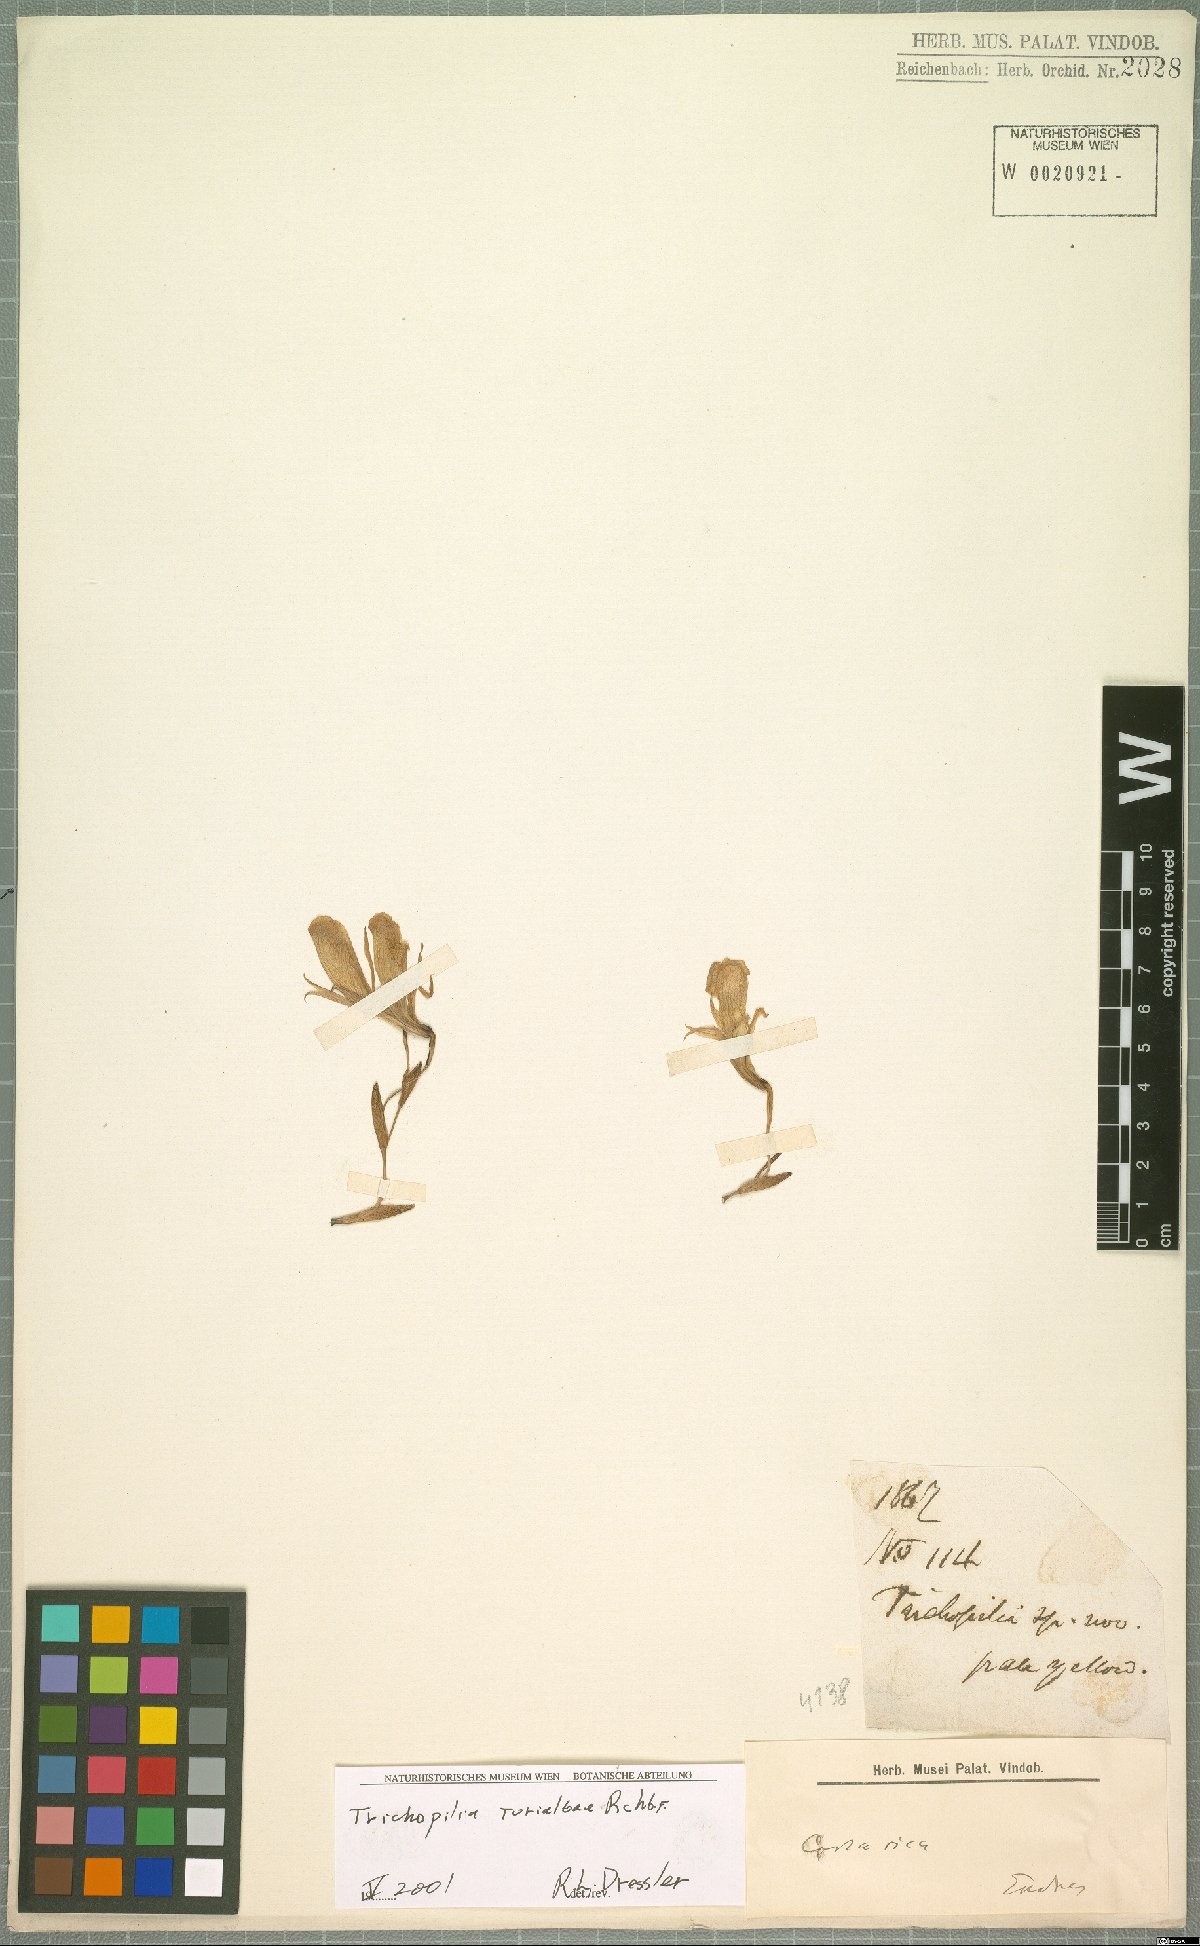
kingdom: Plantae
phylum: Tracheophyta
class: Liliopsida
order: Asparagales
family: Orchidaceae
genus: Trichopilia
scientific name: Trichopilia turialbae
